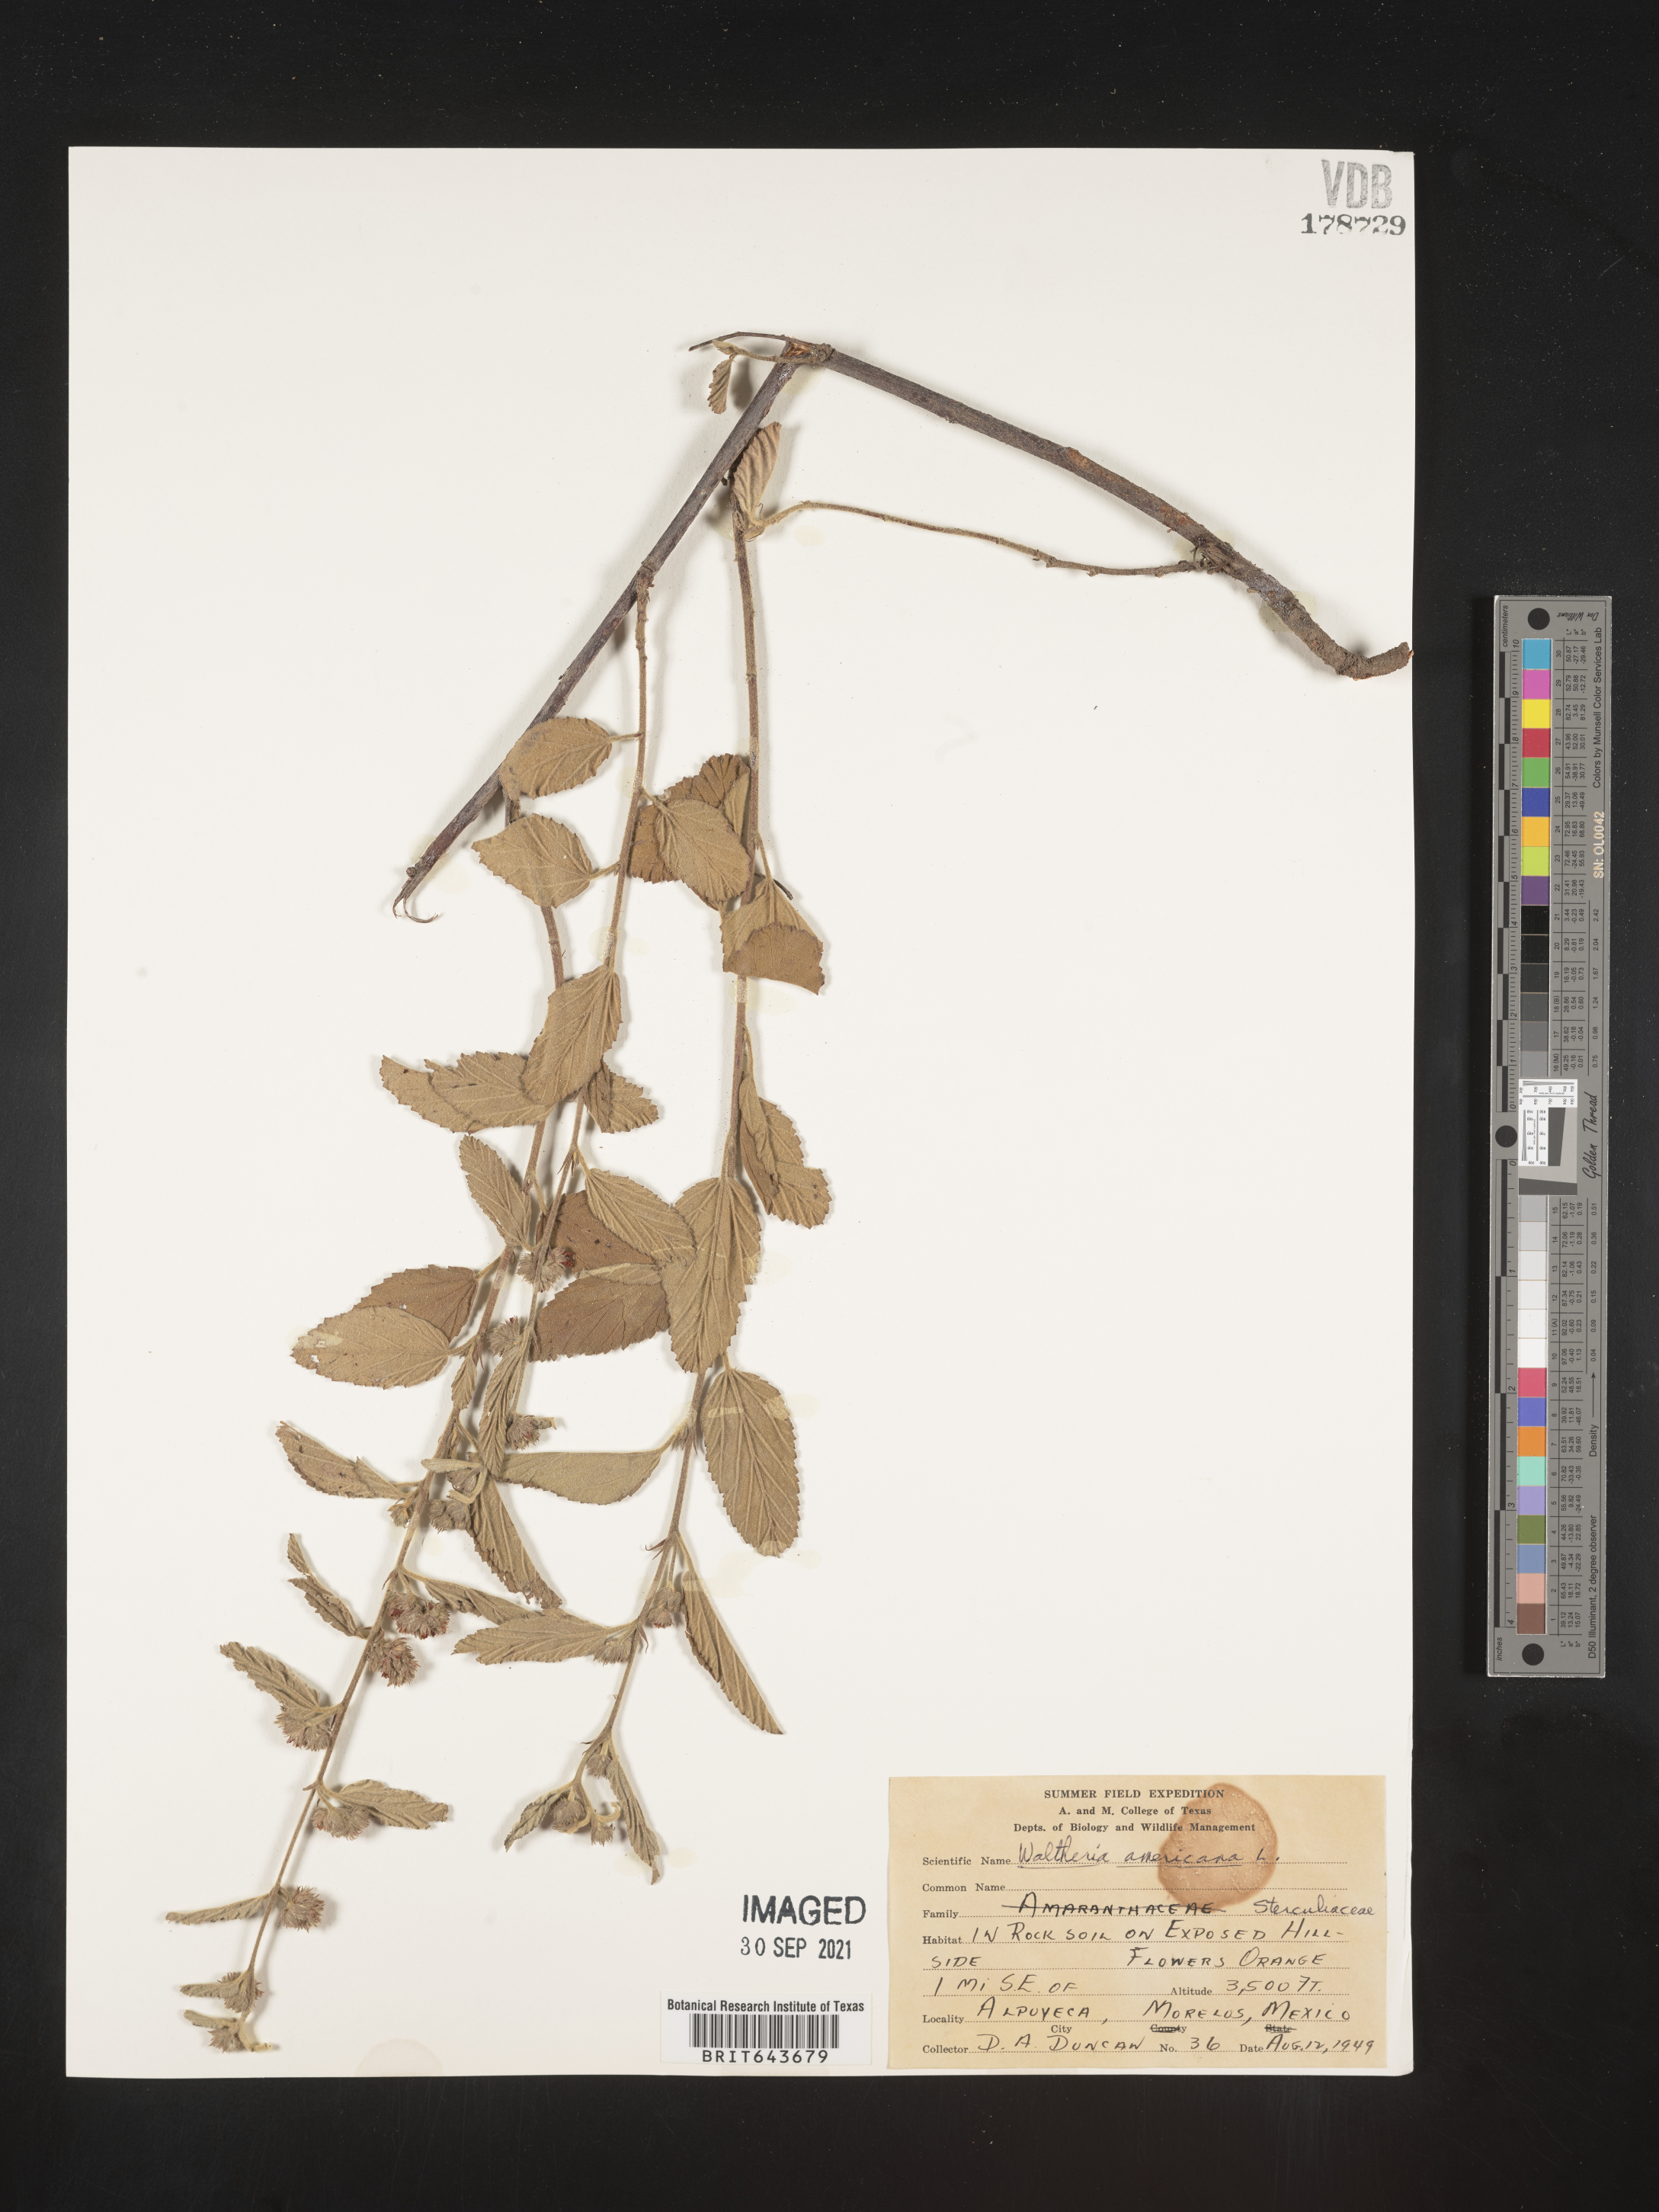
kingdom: Plantae
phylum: Tracheophyta
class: Magnoliopsida
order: Malvales
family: Malvaceae
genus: Waltheria
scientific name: Waltheria
